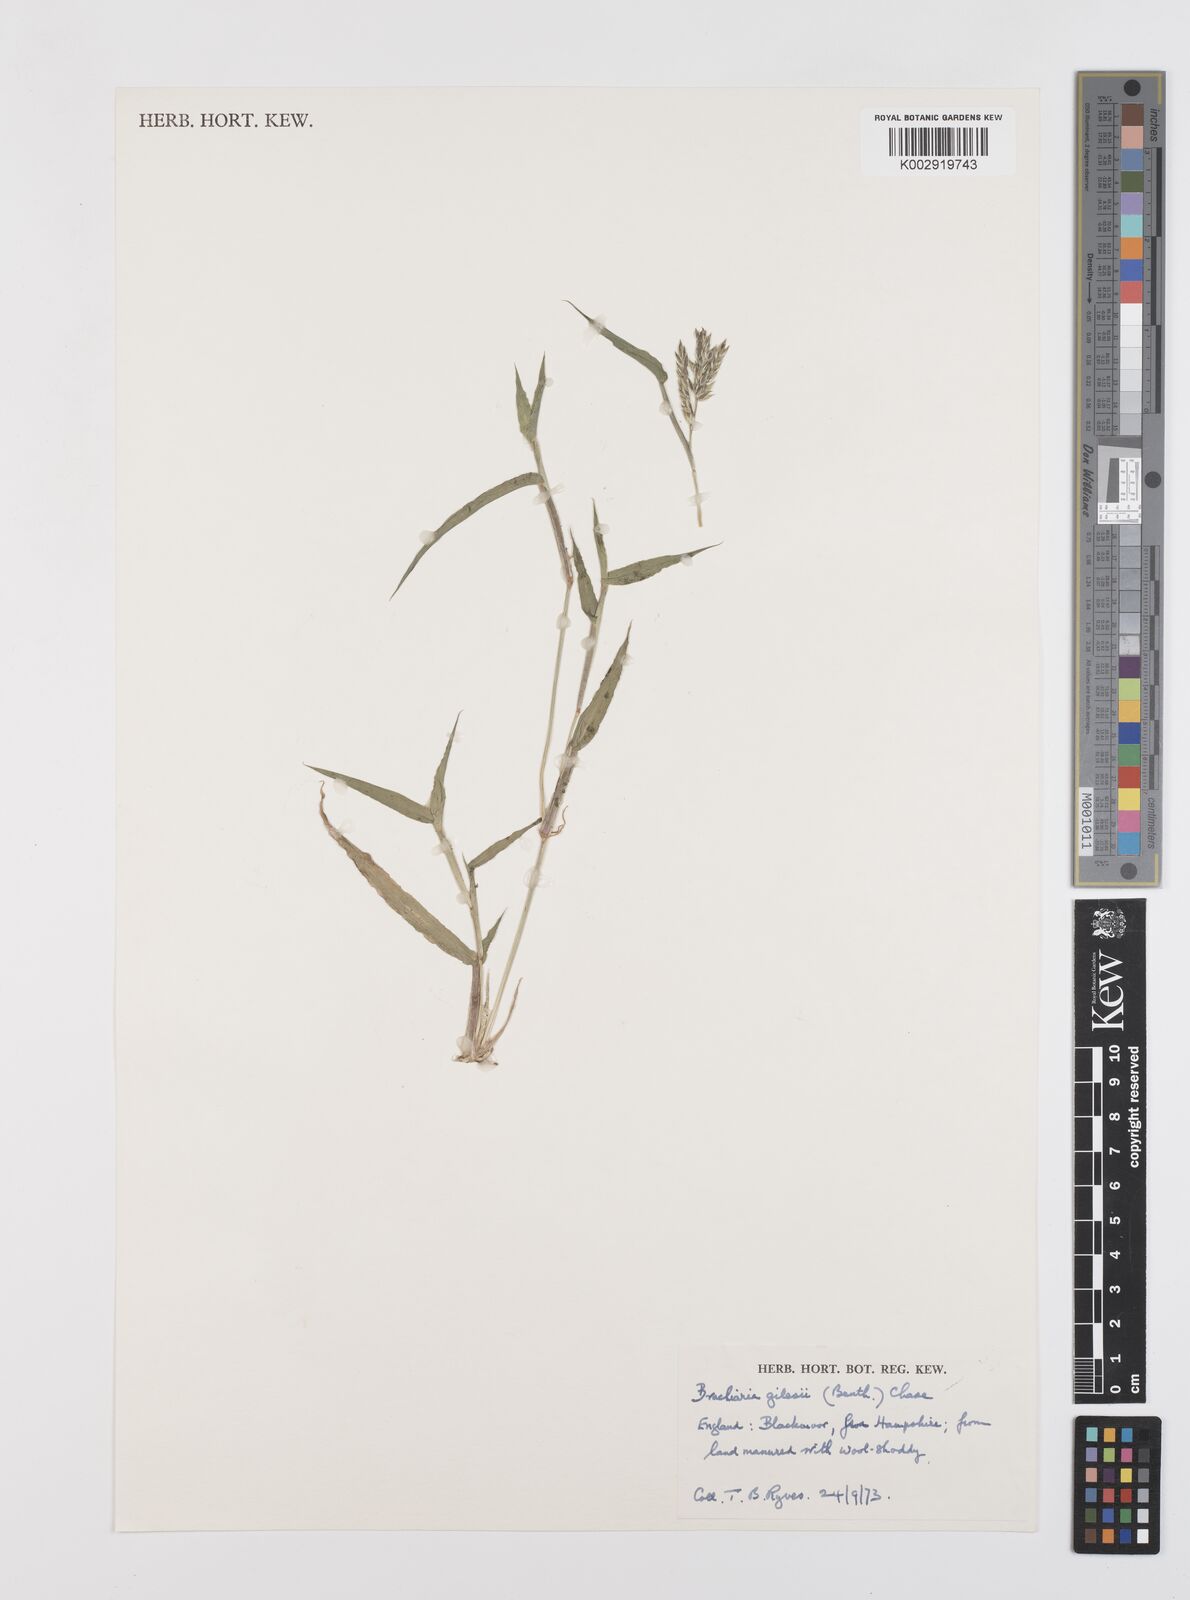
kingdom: Plantae
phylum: Tracheophyta
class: Liliopsida
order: Poales
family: Poaceae
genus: Urochloa
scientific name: Urochloa gilesii
